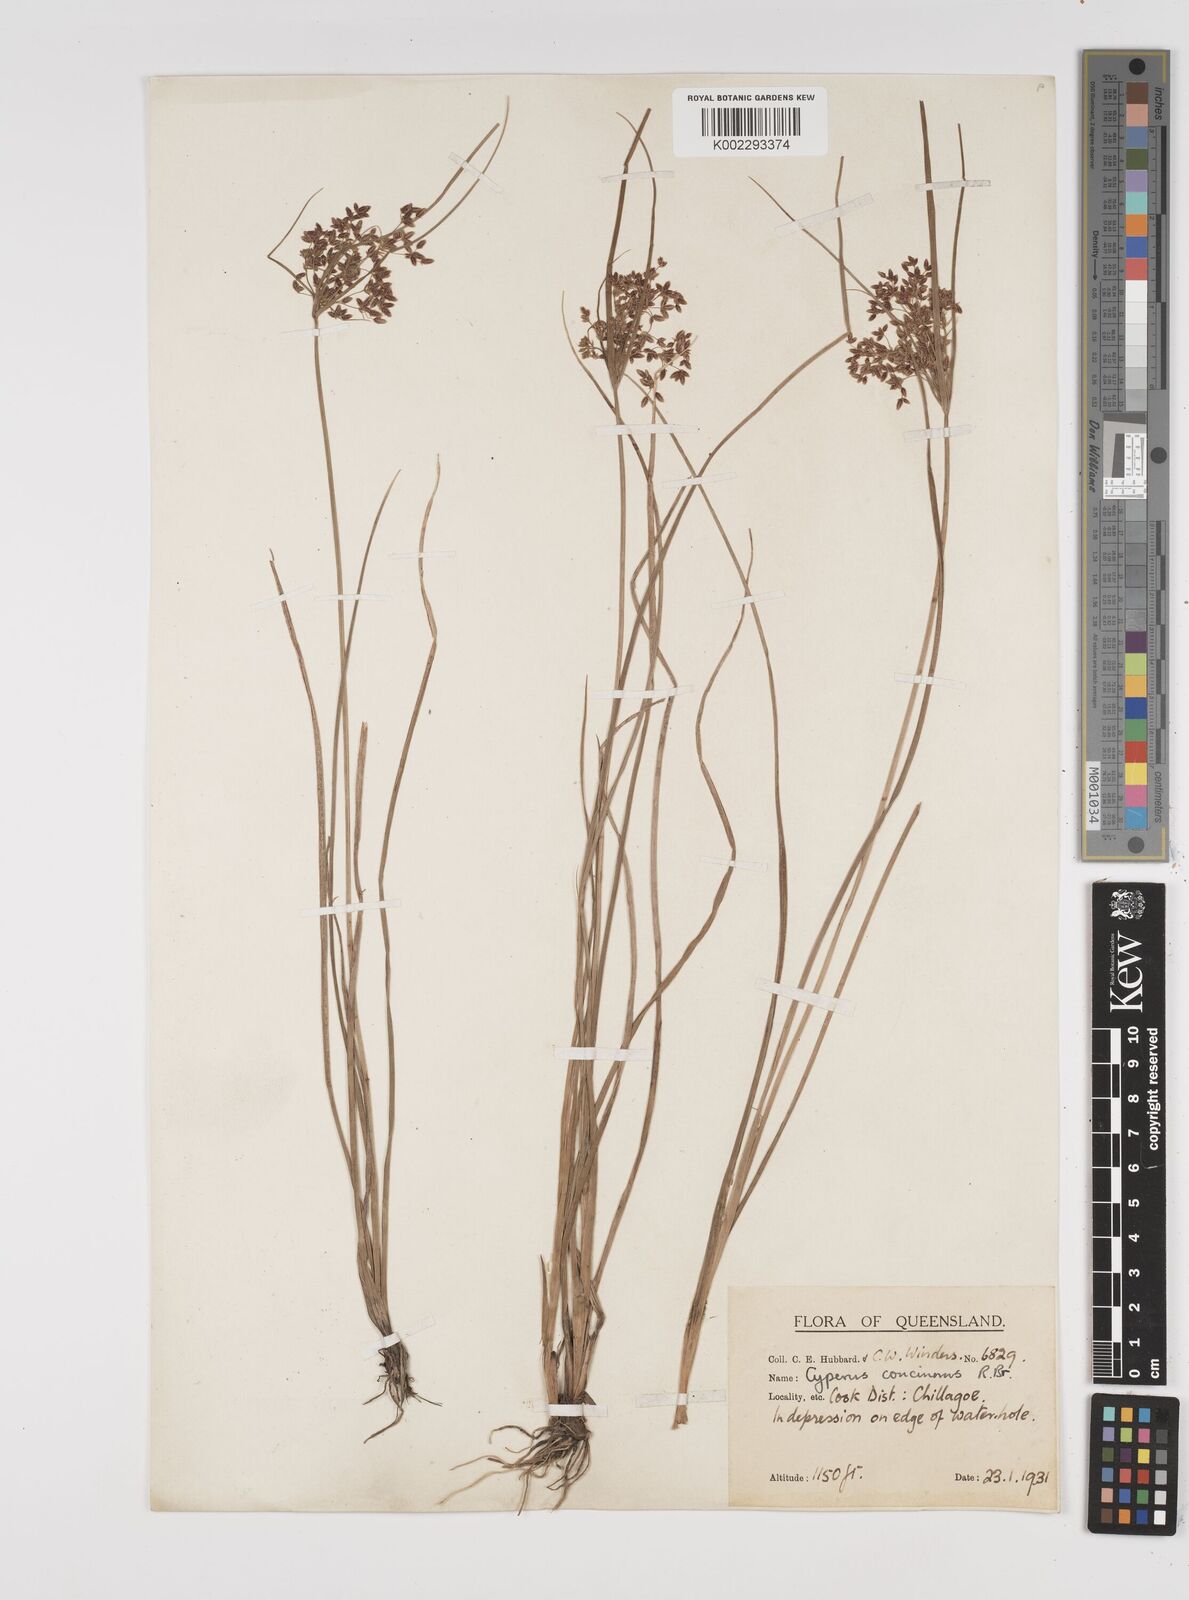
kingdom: Plantae
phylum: Tracheophyta
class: Liliopsida
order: Poales
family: Cyperaceae
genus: Cyperus
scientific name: Cyperus concinnus
